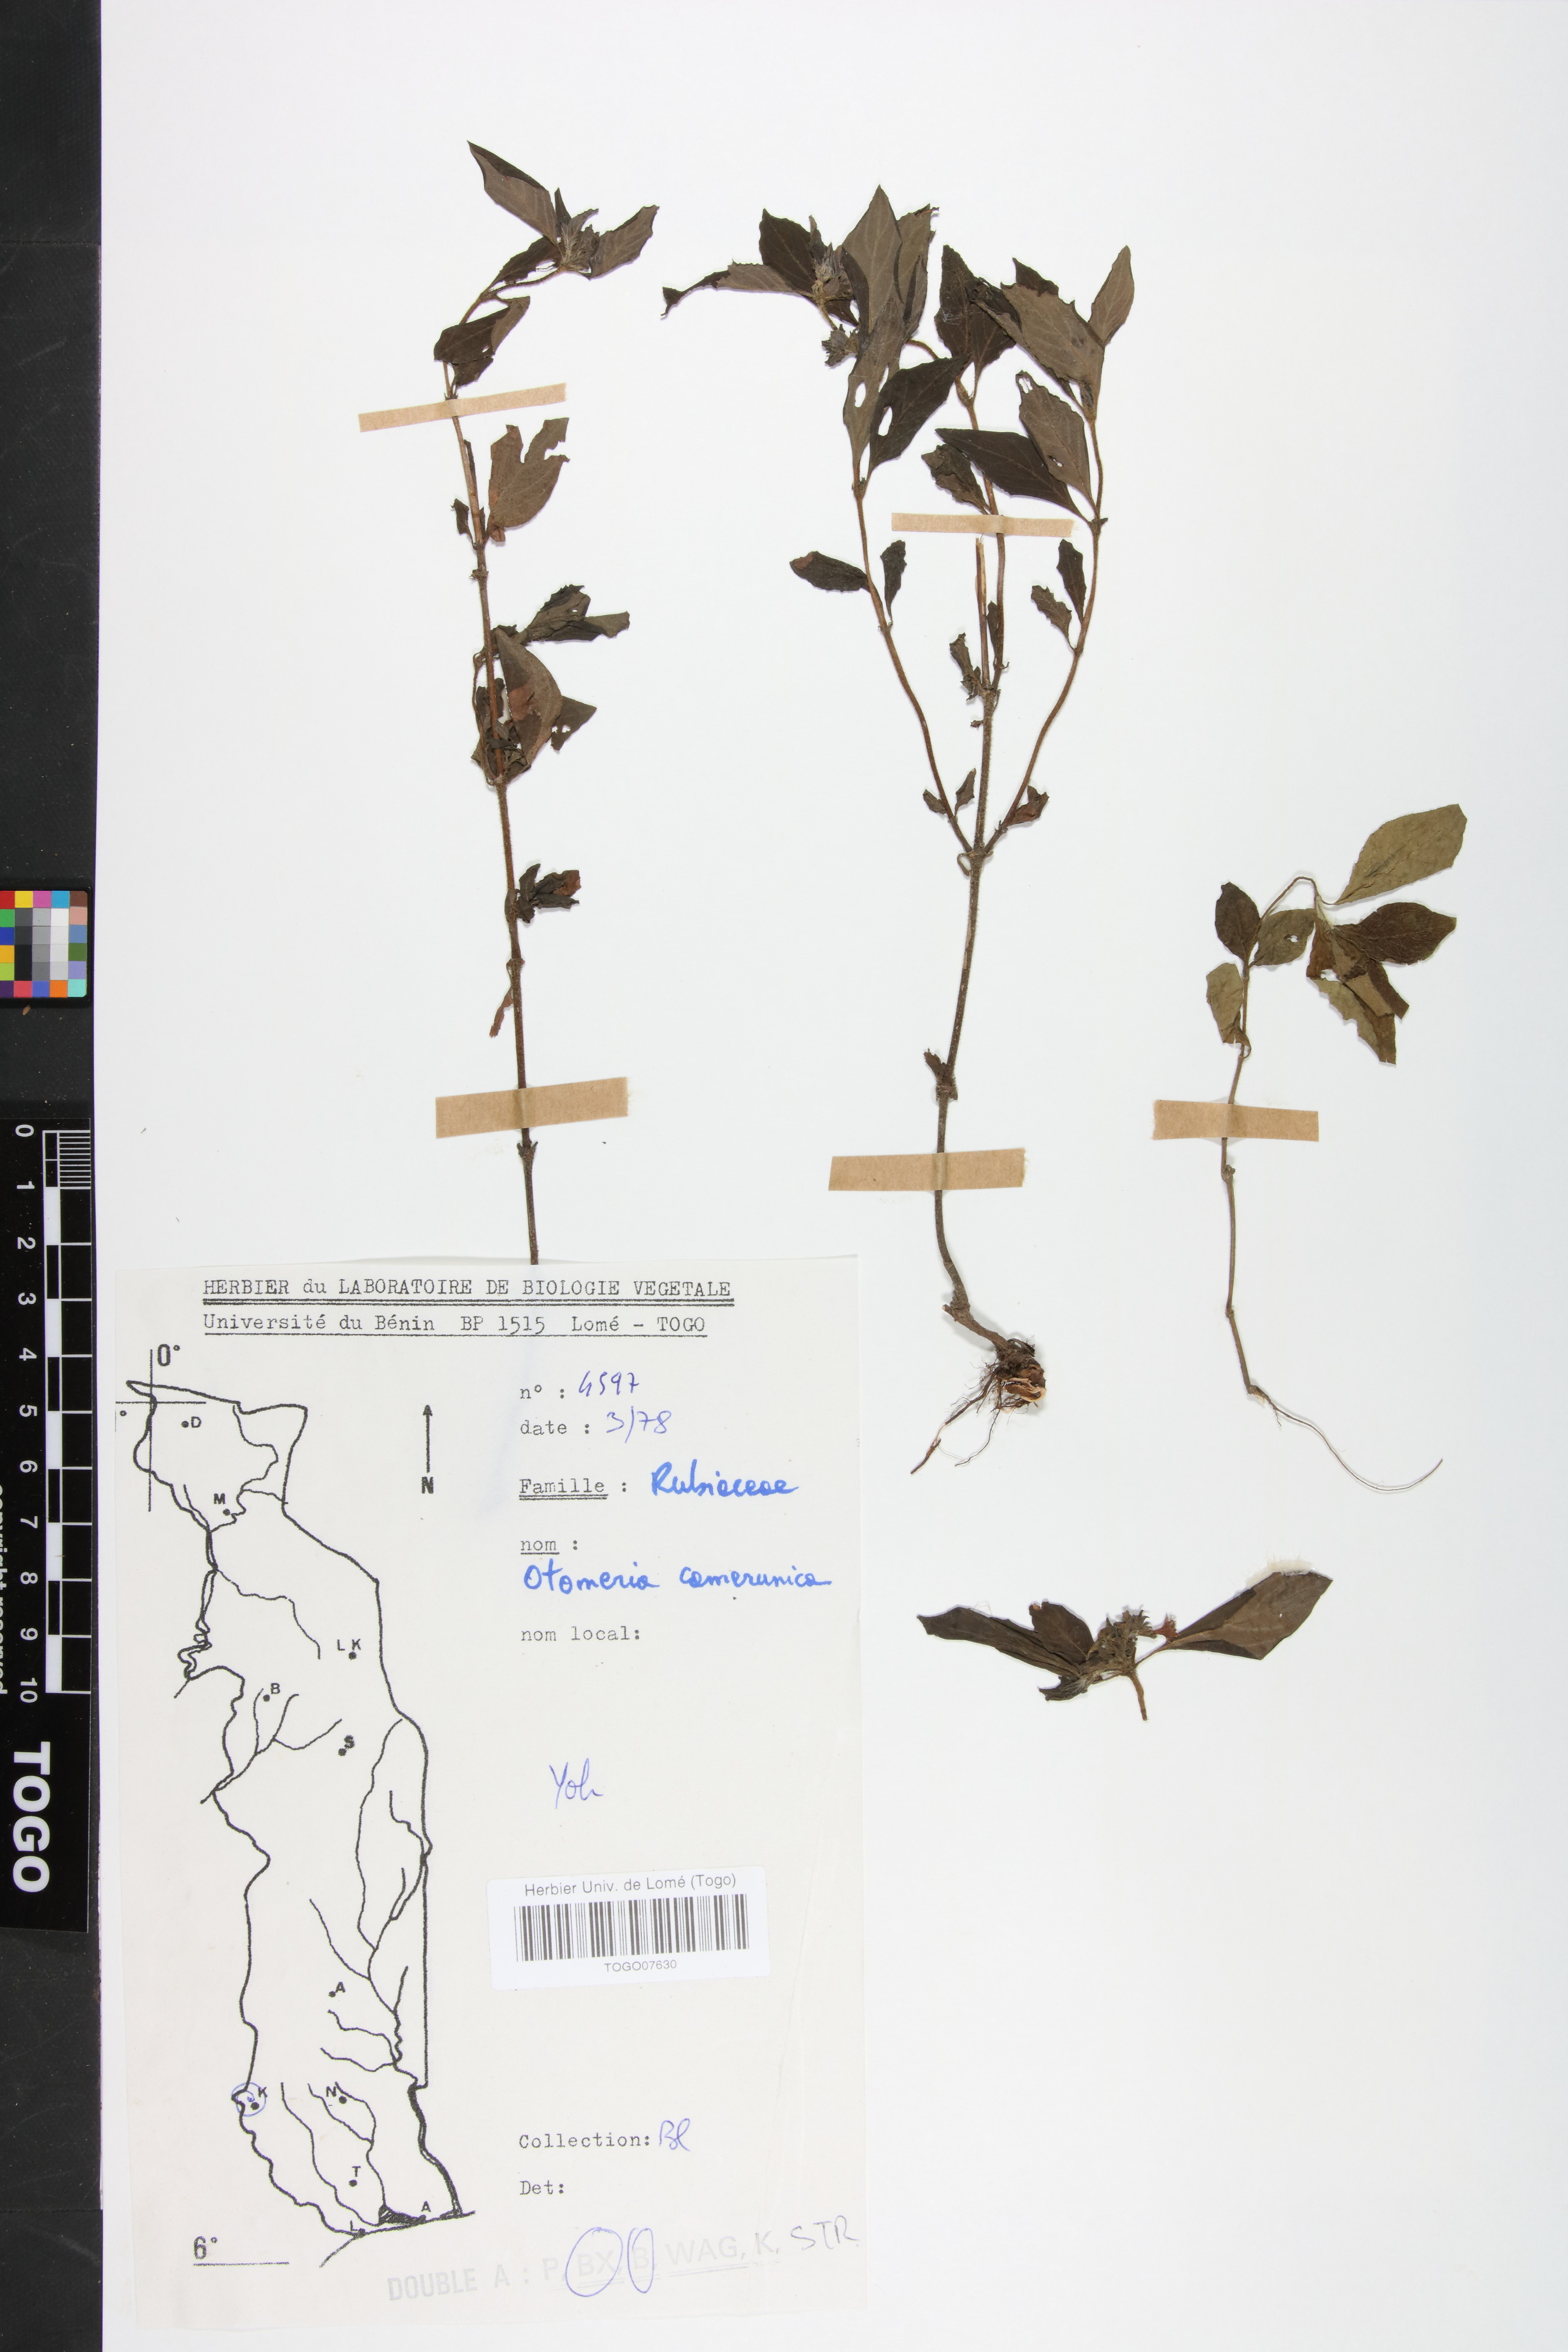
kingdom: Plantae
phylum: Tracheophyta
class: Magnoliopsida
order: Gentianales
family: Rubiaceae
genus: Otomeria
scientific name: Otomeria cameronica
